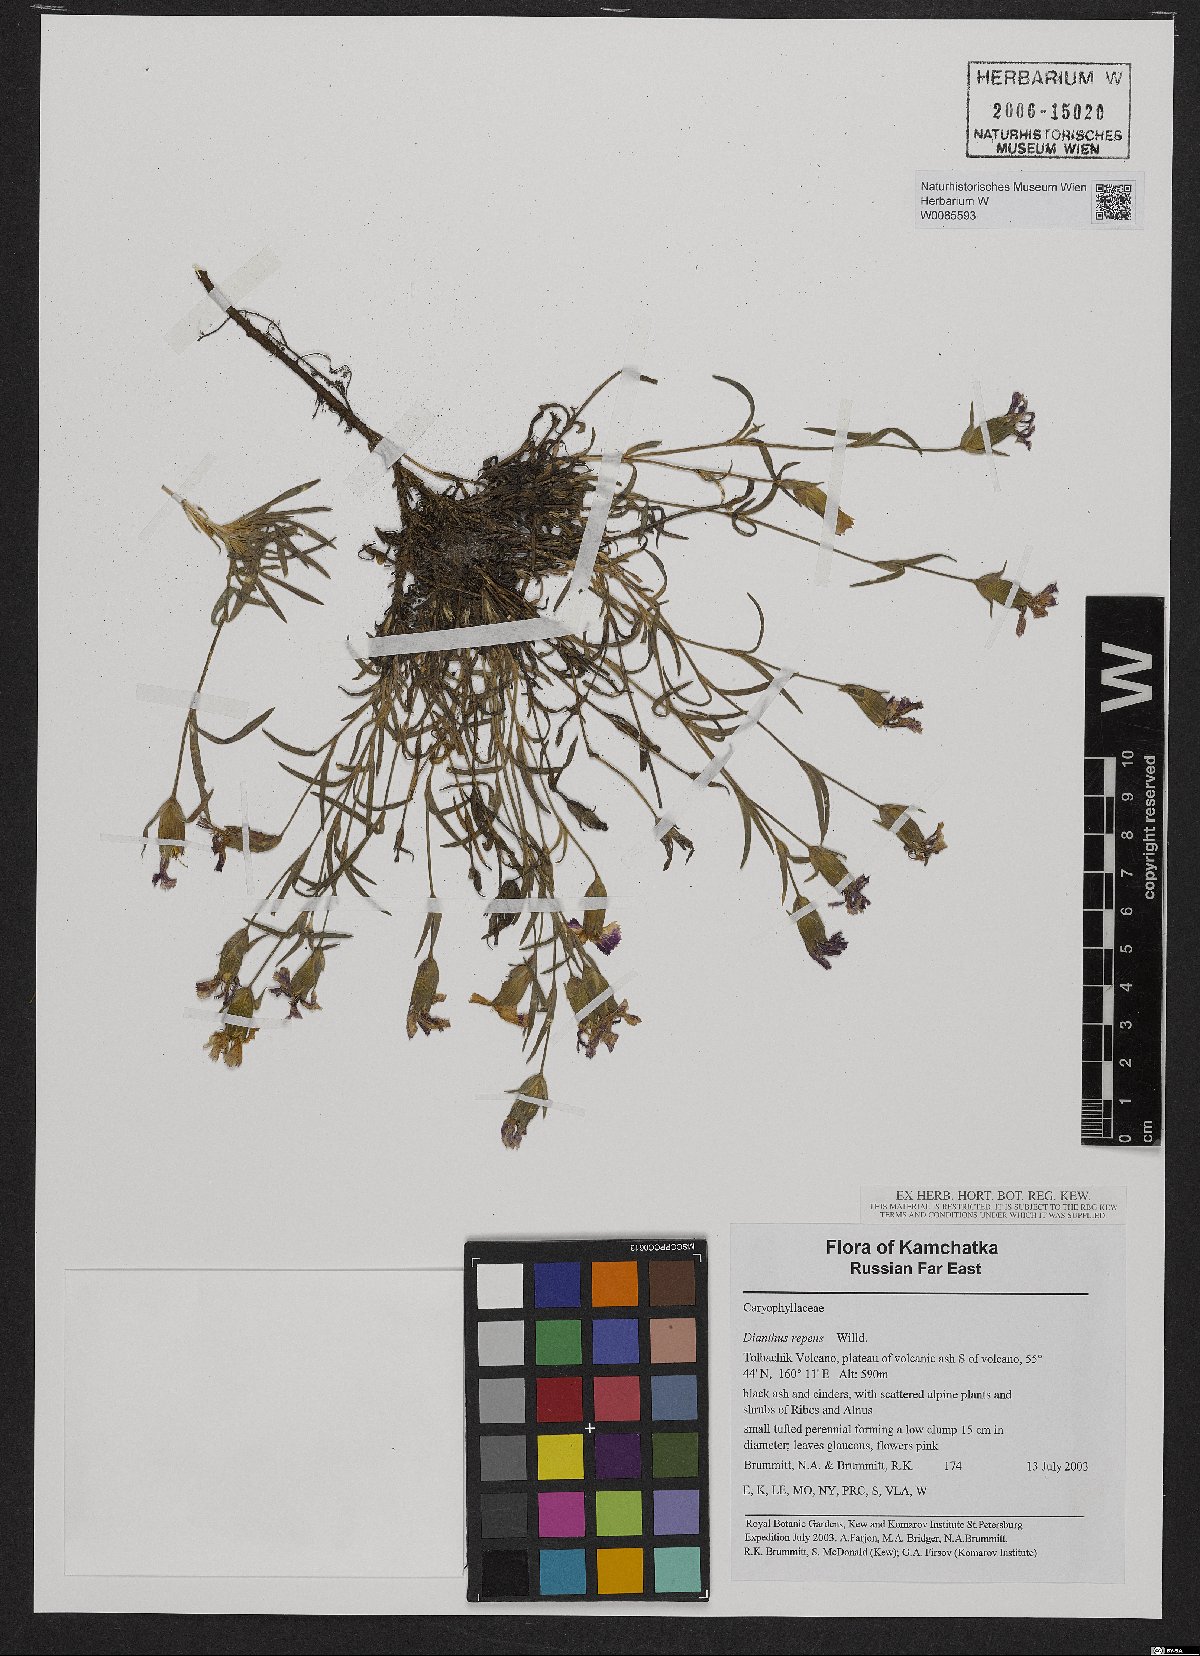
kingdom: Plantae
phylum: Tracheophyta
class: Magnoliopsida
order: Caryophyllales
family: Caryophyllaceae
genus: Dianthus
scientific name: Dianthus repens
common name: Northern pink
